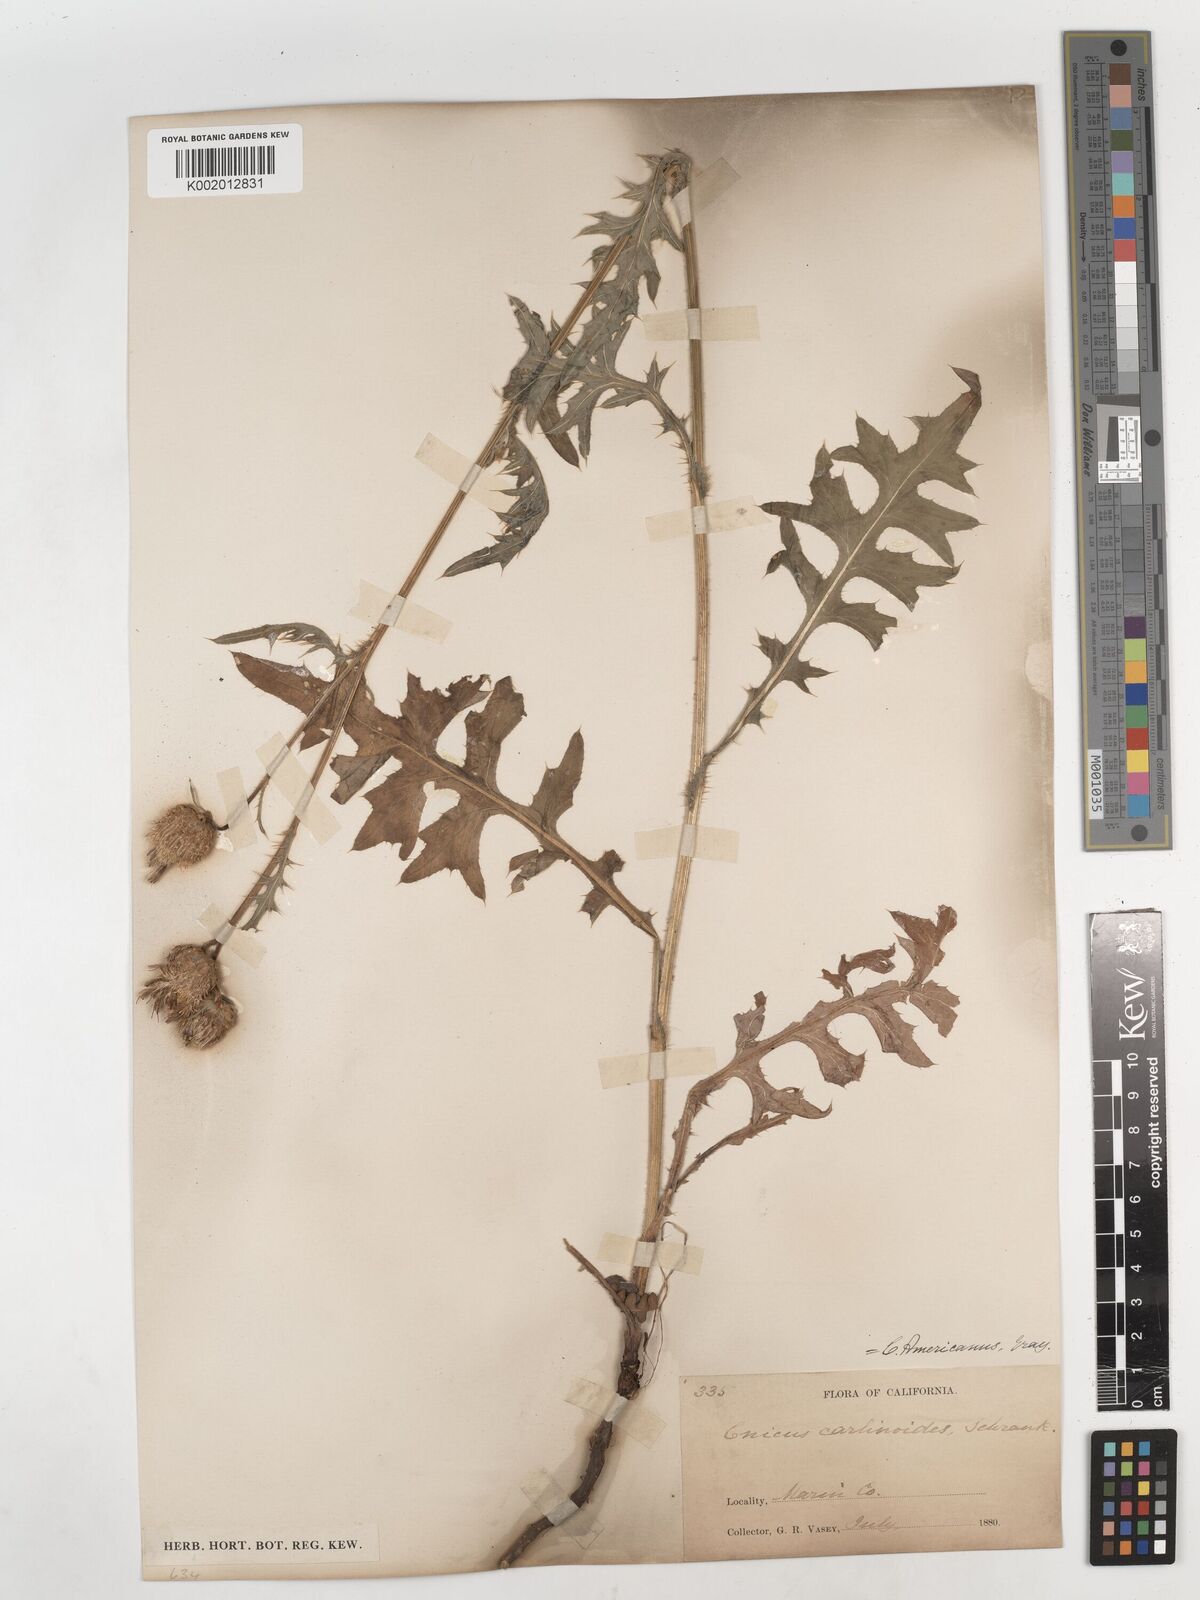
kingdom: Plantae
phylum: Tracheophyta
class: Magnoliopsida
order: Asterales
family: Asteraceae
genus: Cirsium
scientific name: Cirsium tioganum
